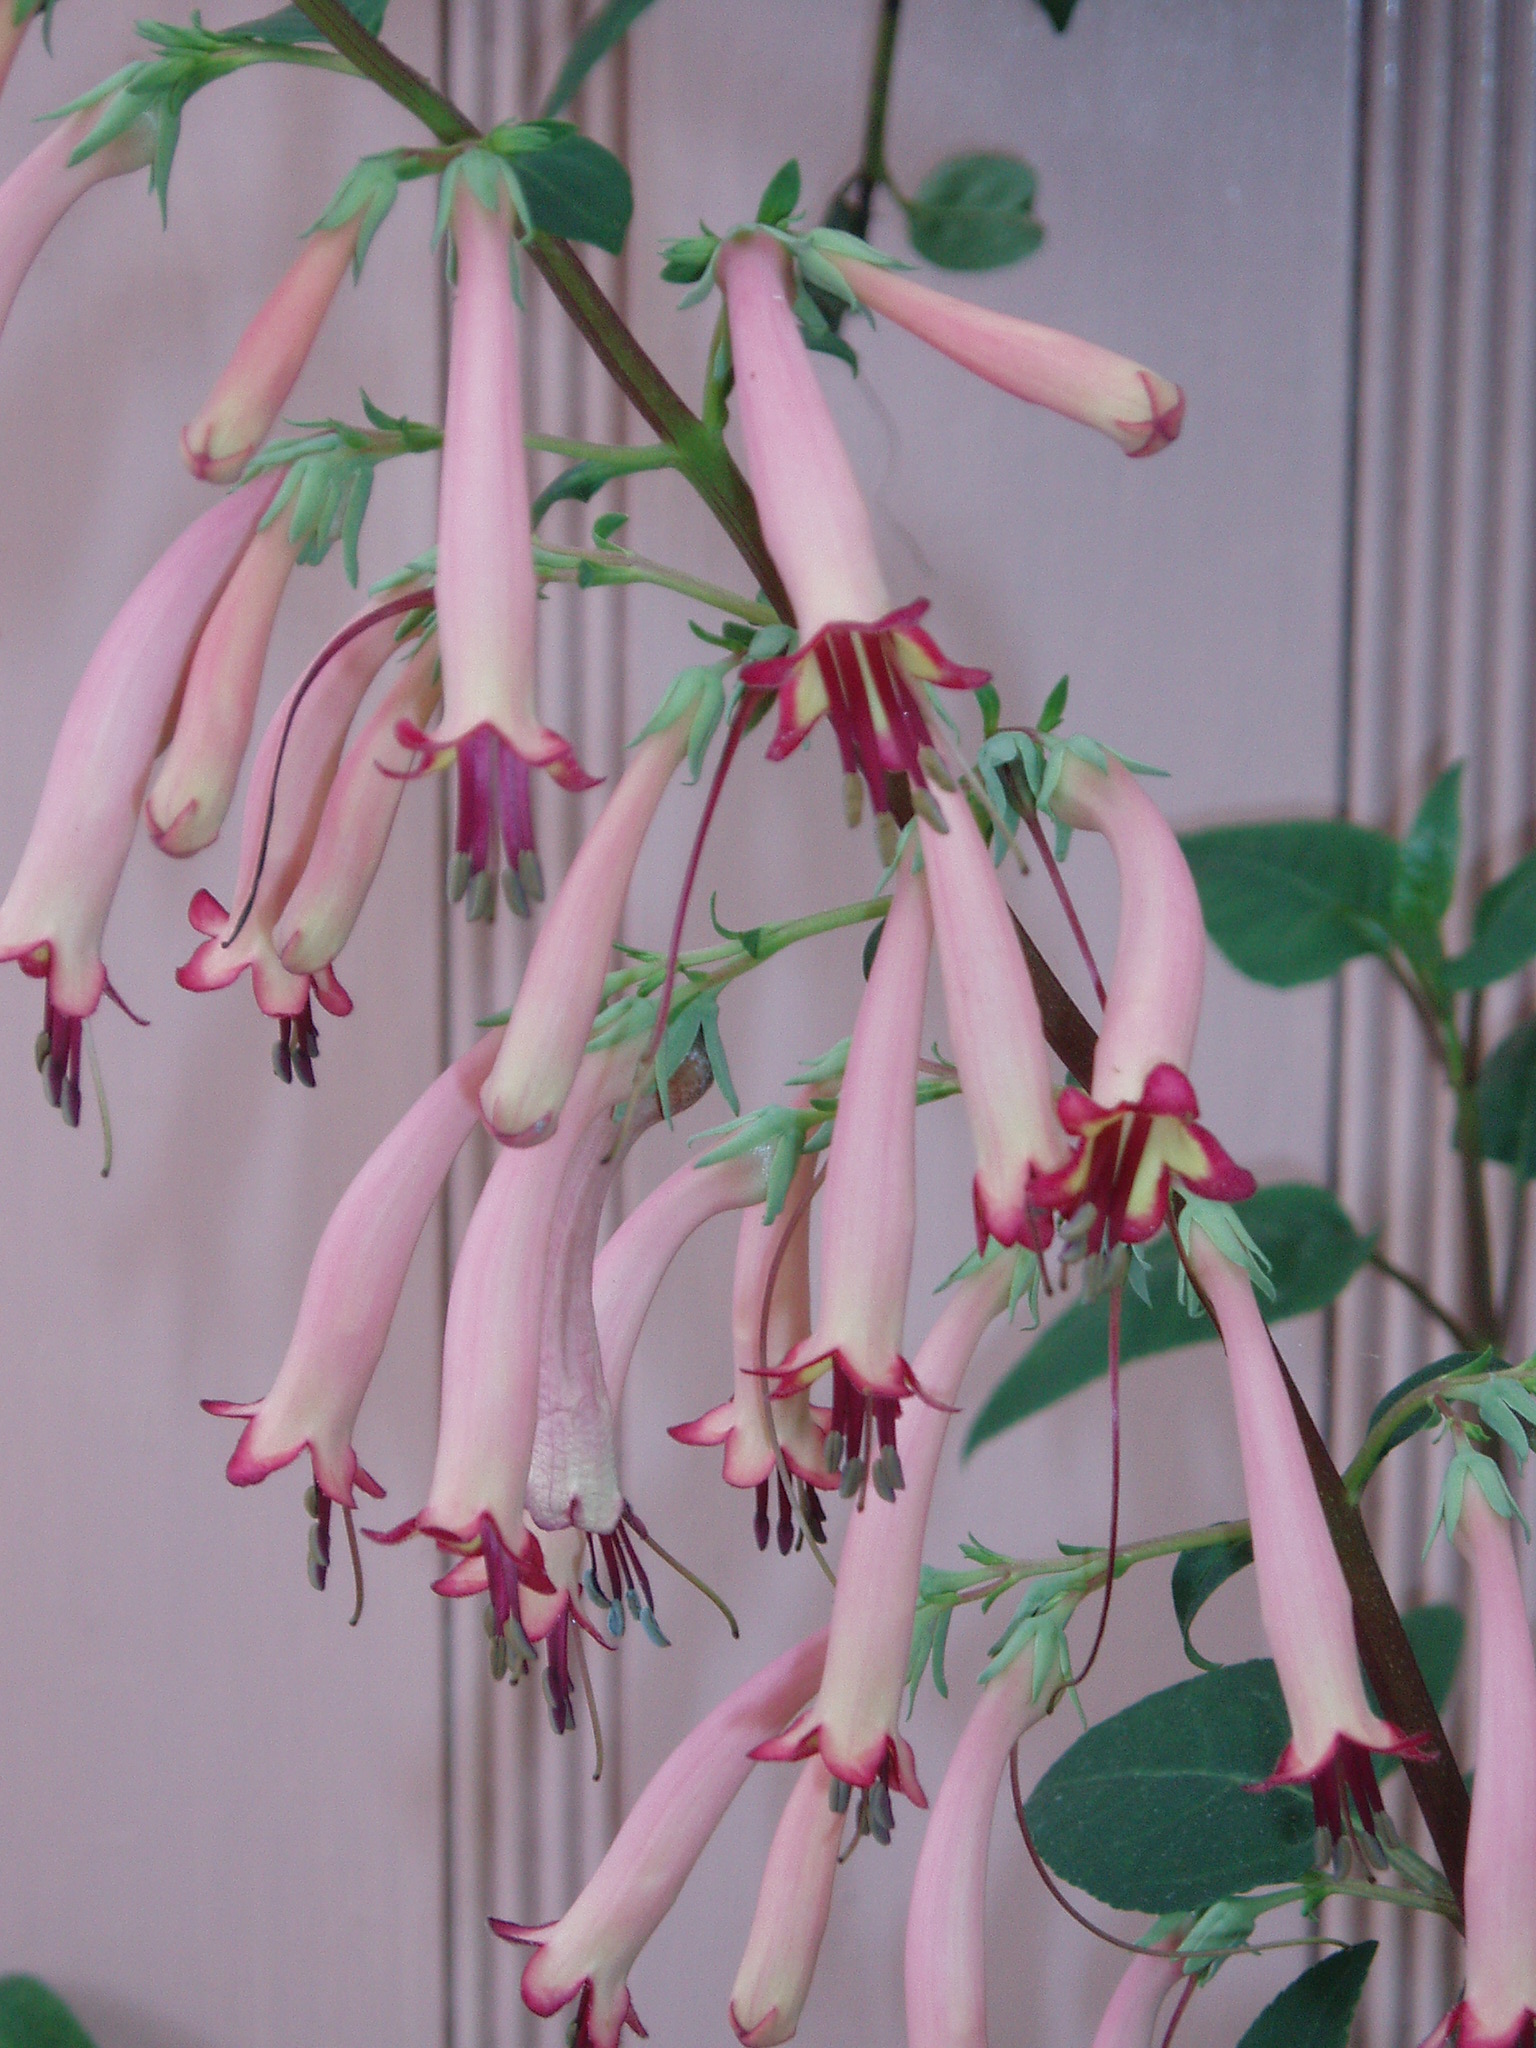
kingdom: Plantae
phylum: Tracheophyta
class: Magnoliopsida
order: Lamiales
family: Scrophulariaceae
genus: Phygelius
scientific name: Phygelius
